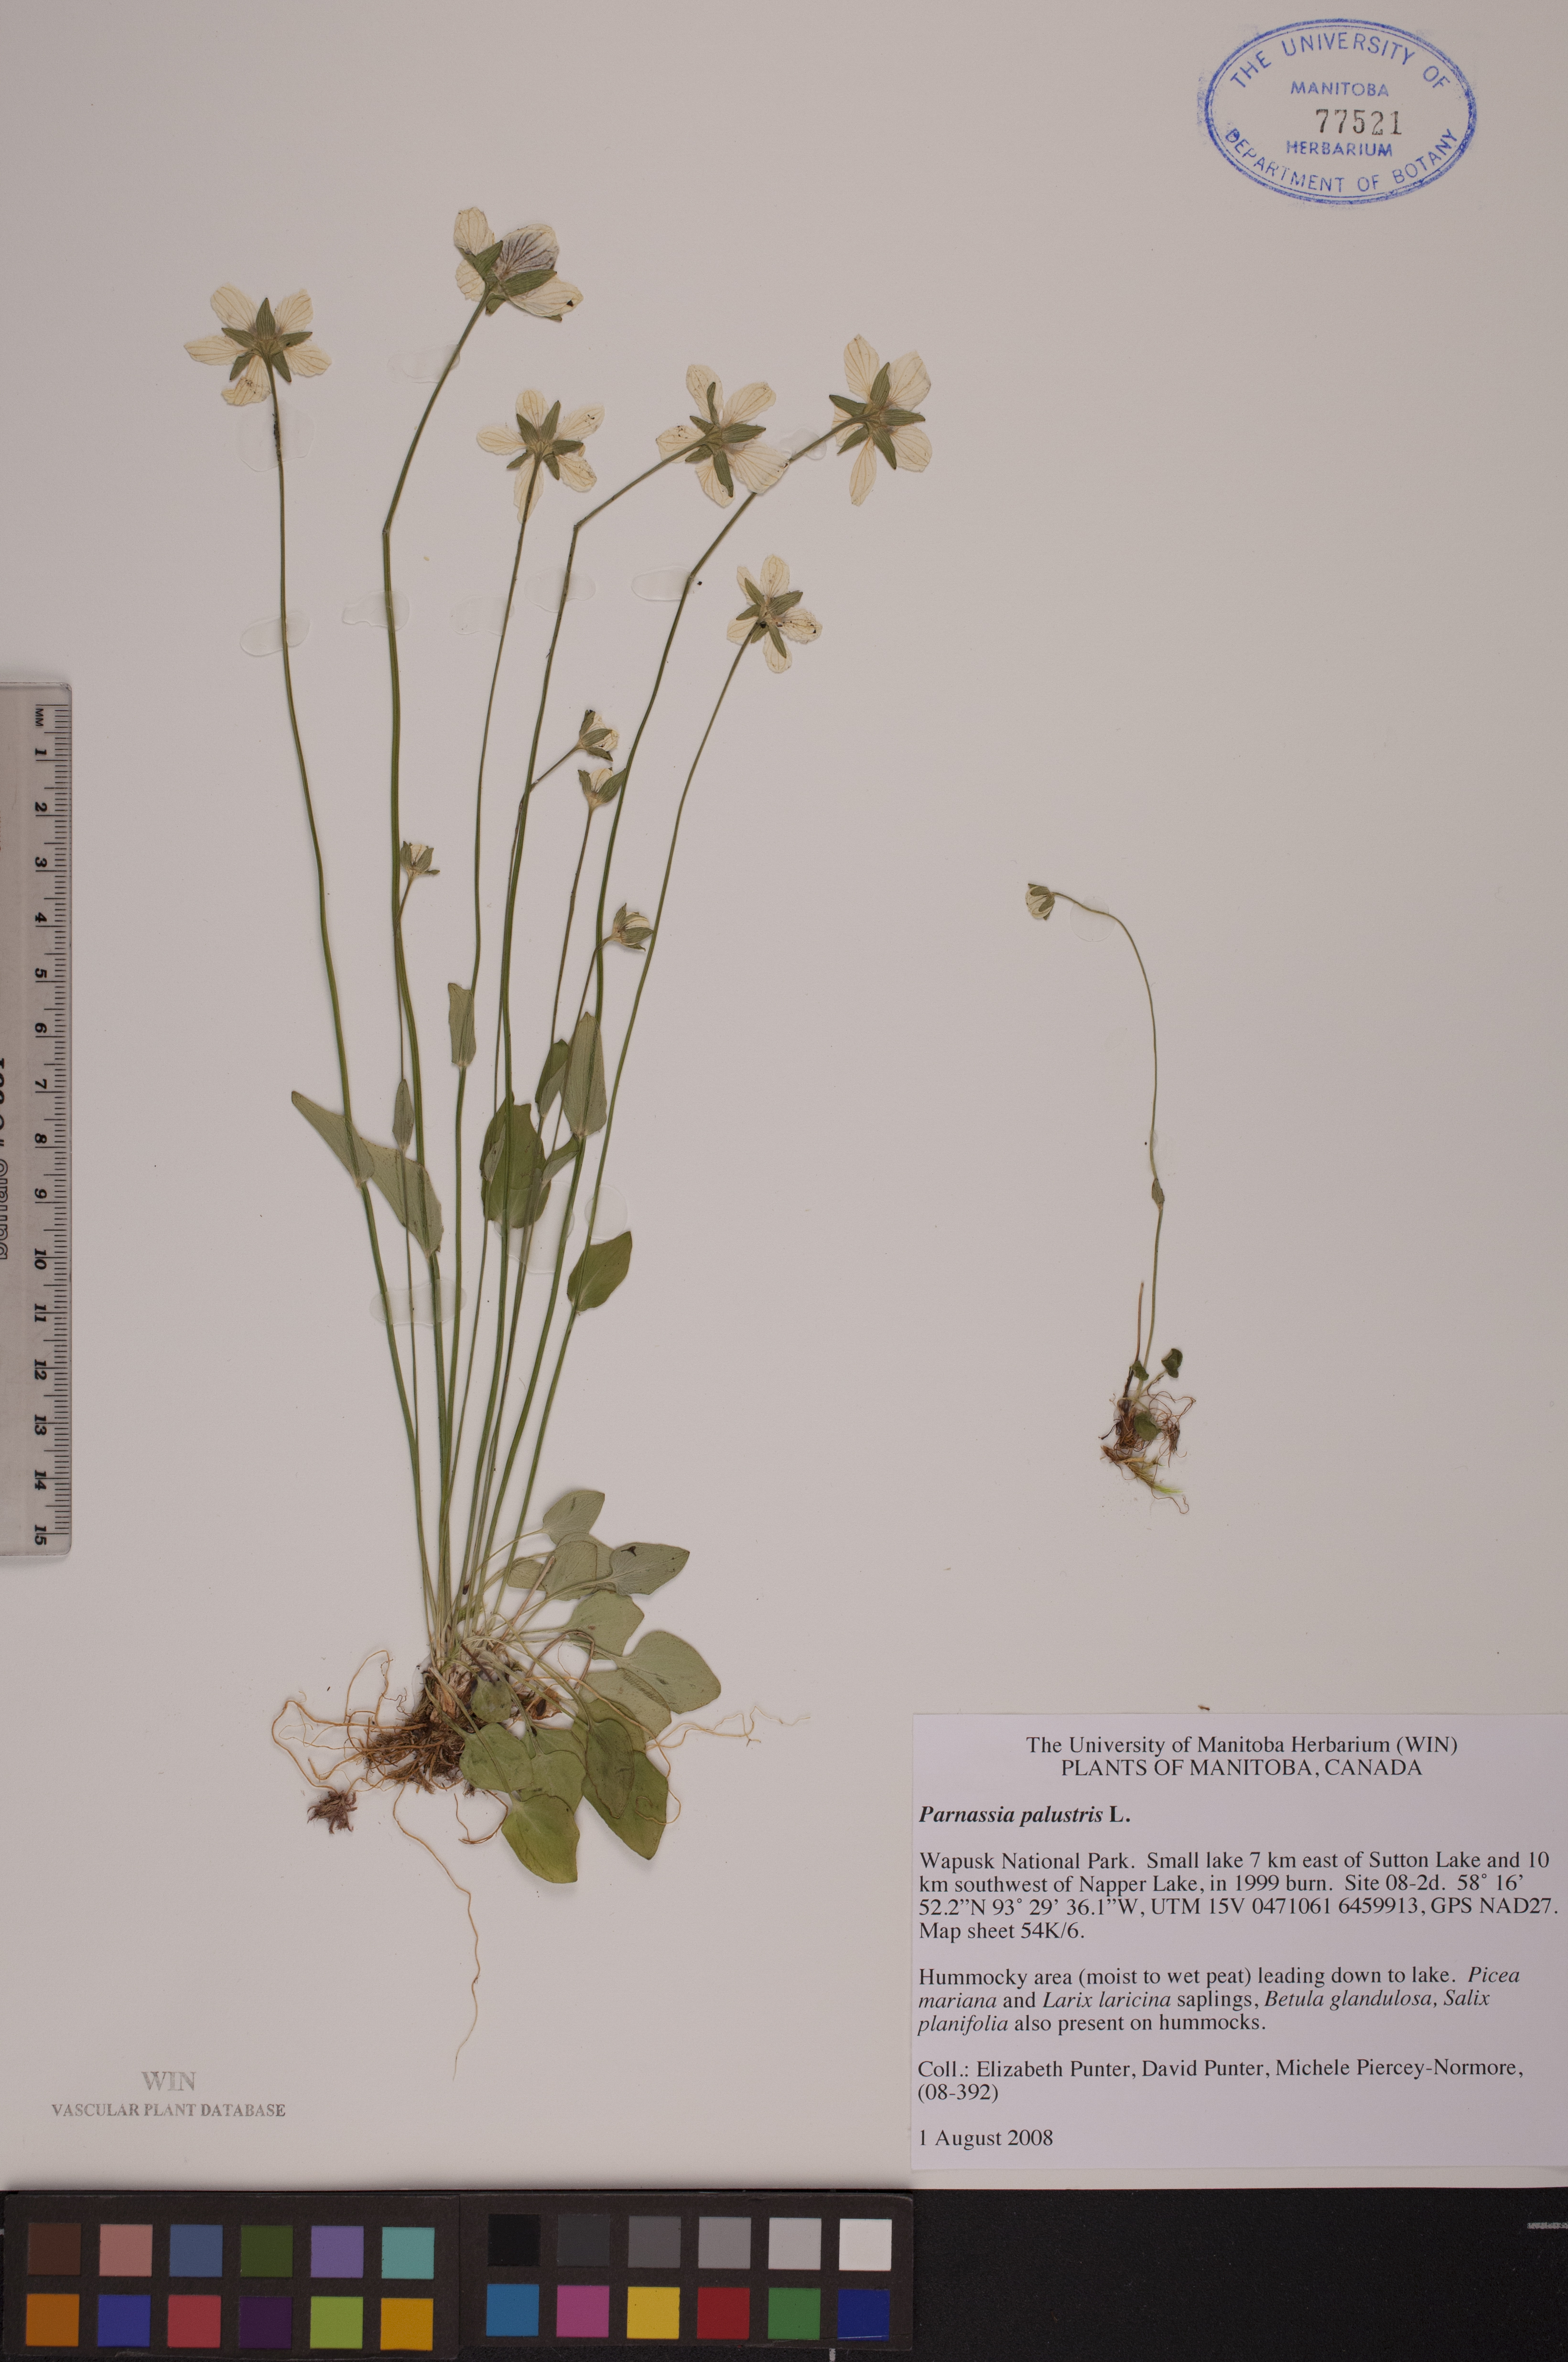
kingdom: Plantae
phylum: Tracheophyta
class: Magnoliopsida
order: Celastrales
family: Parnassiaceae
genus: Parnassia
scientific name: Parnassia palustris
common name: Grass-of-parnassus
